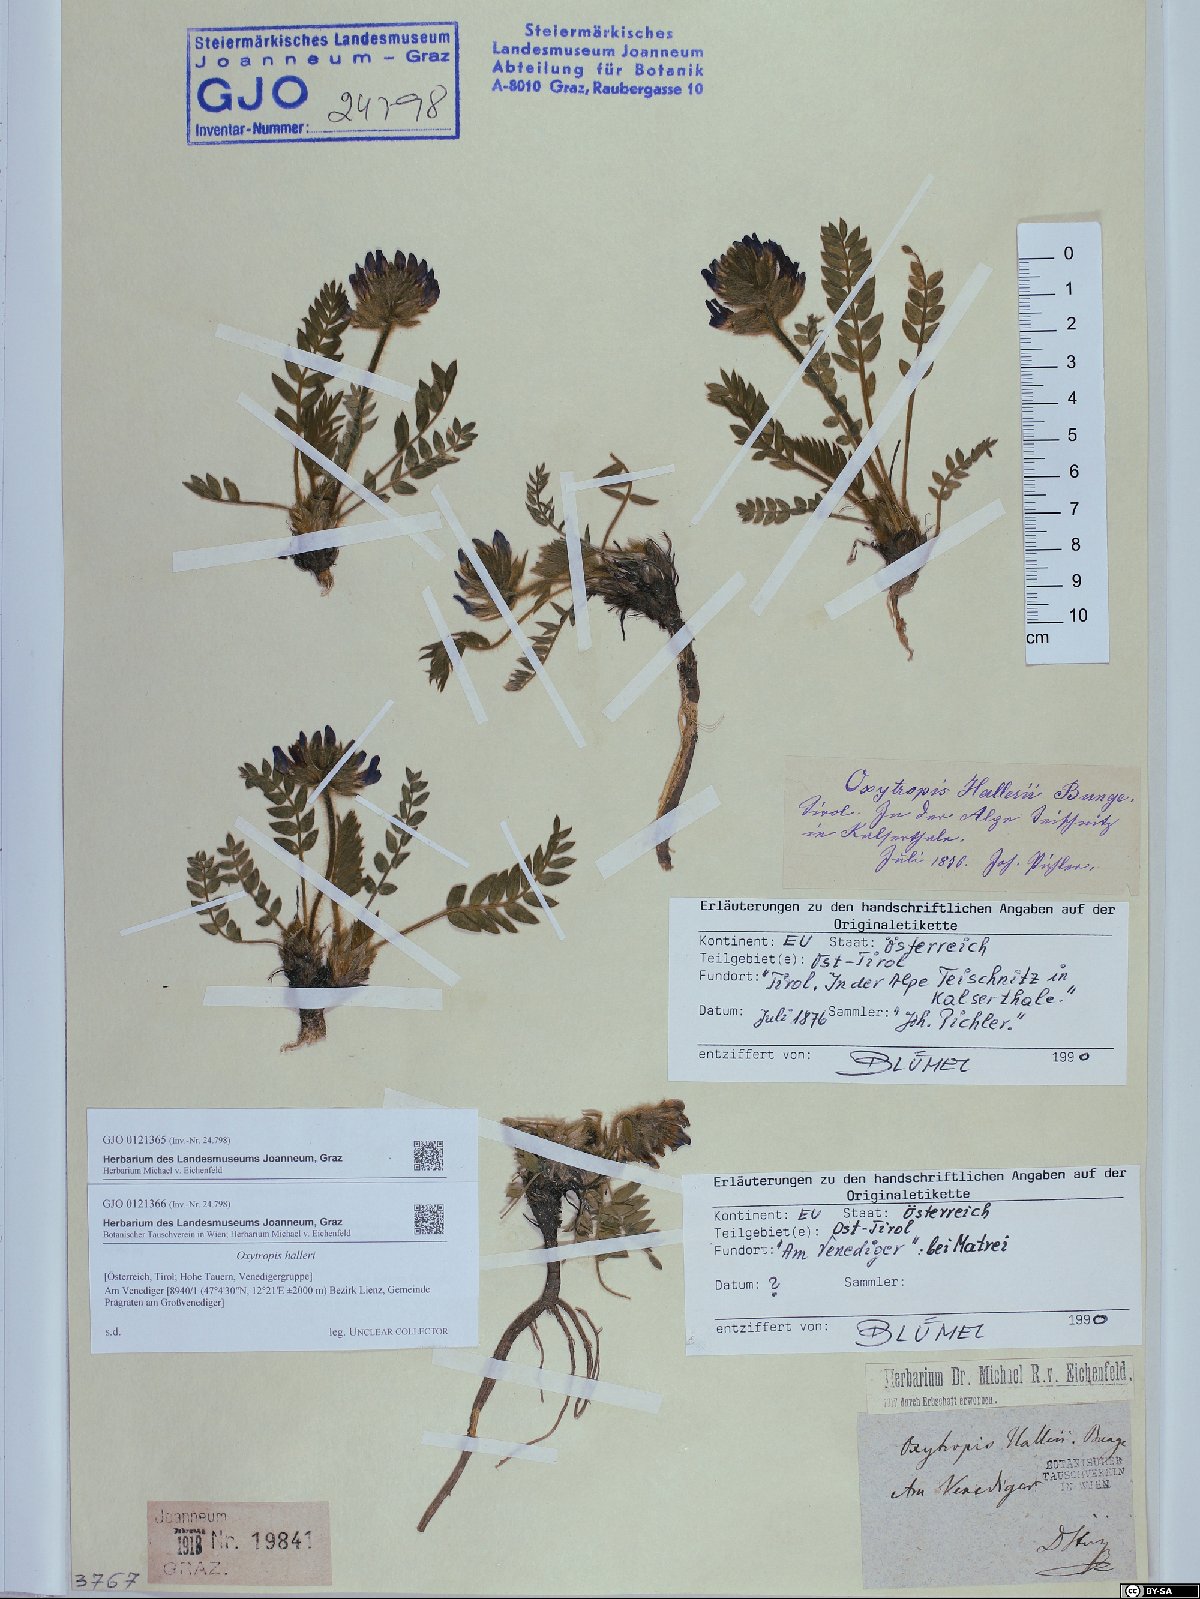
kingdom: Plantae
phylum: Tracheophyta
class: Magnoliopsida
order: Fabales
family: Fabaceae
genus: Oxytropis
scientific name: Oxytropis halleri
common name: Purple oxytropis
